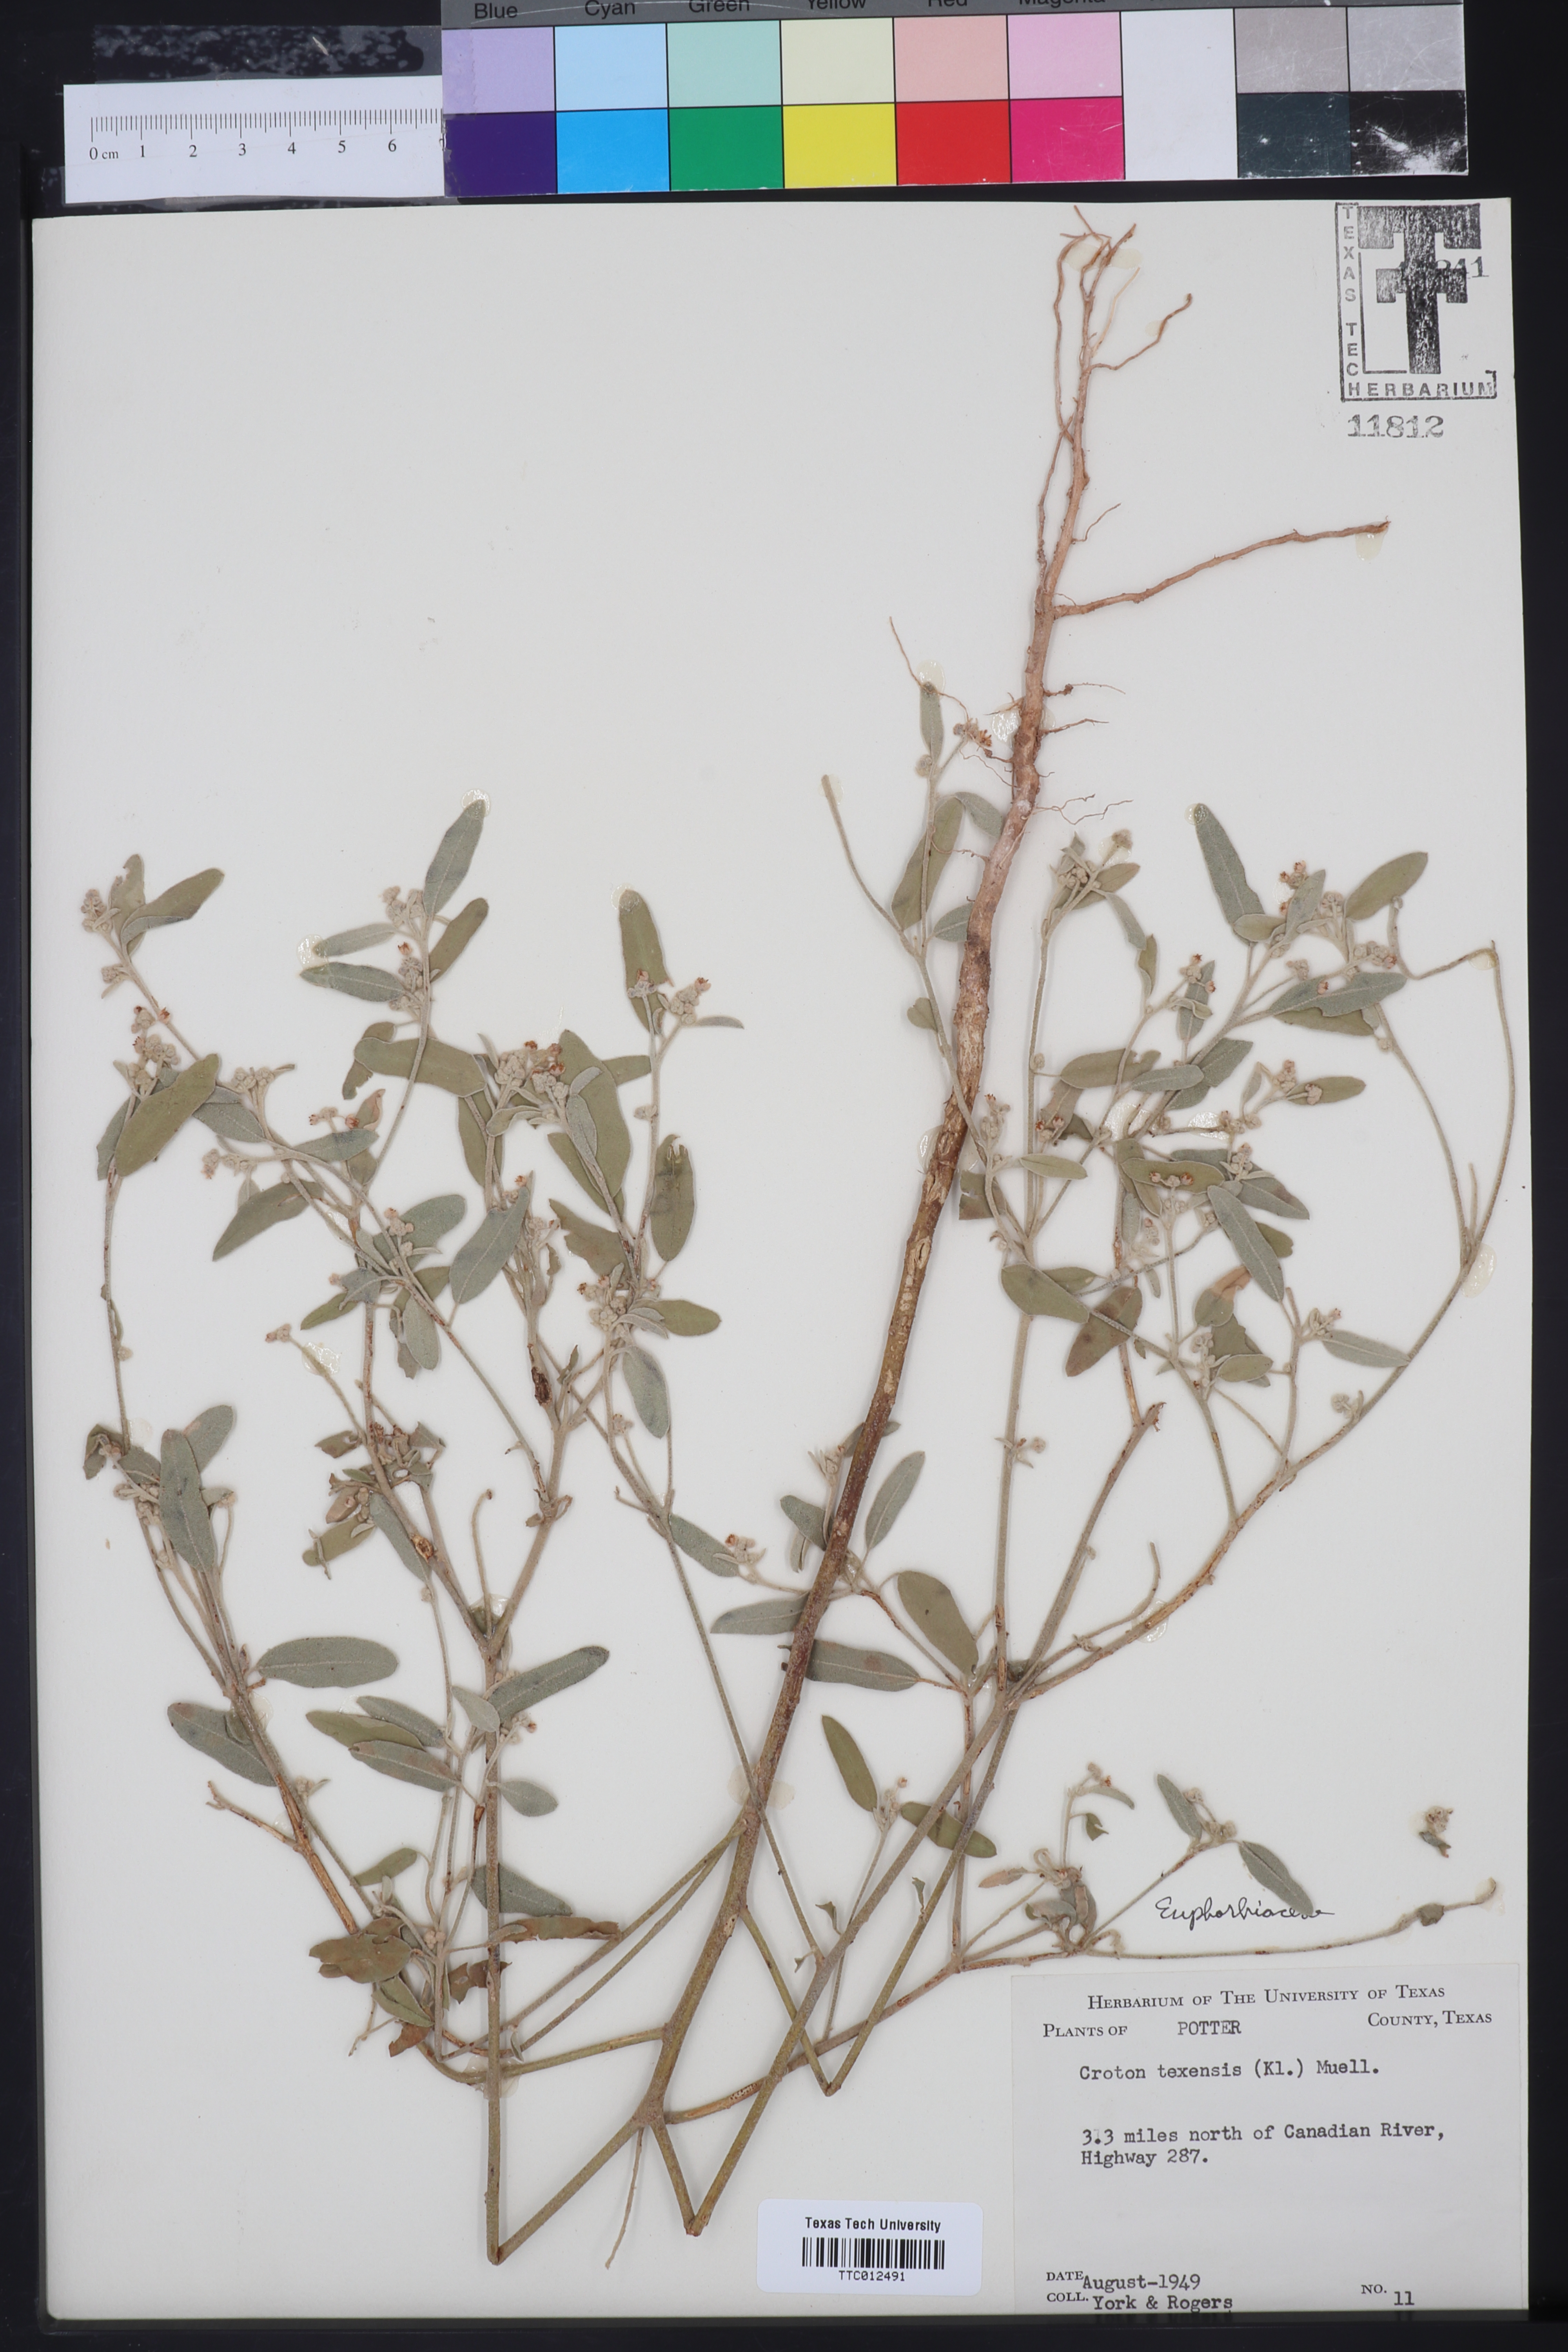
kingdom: Plantae
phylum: Tracheophyta
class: Magnoliopsida
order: Malpighiales
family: Euphorbiaceae
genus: Croton
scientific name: Croton texensis
